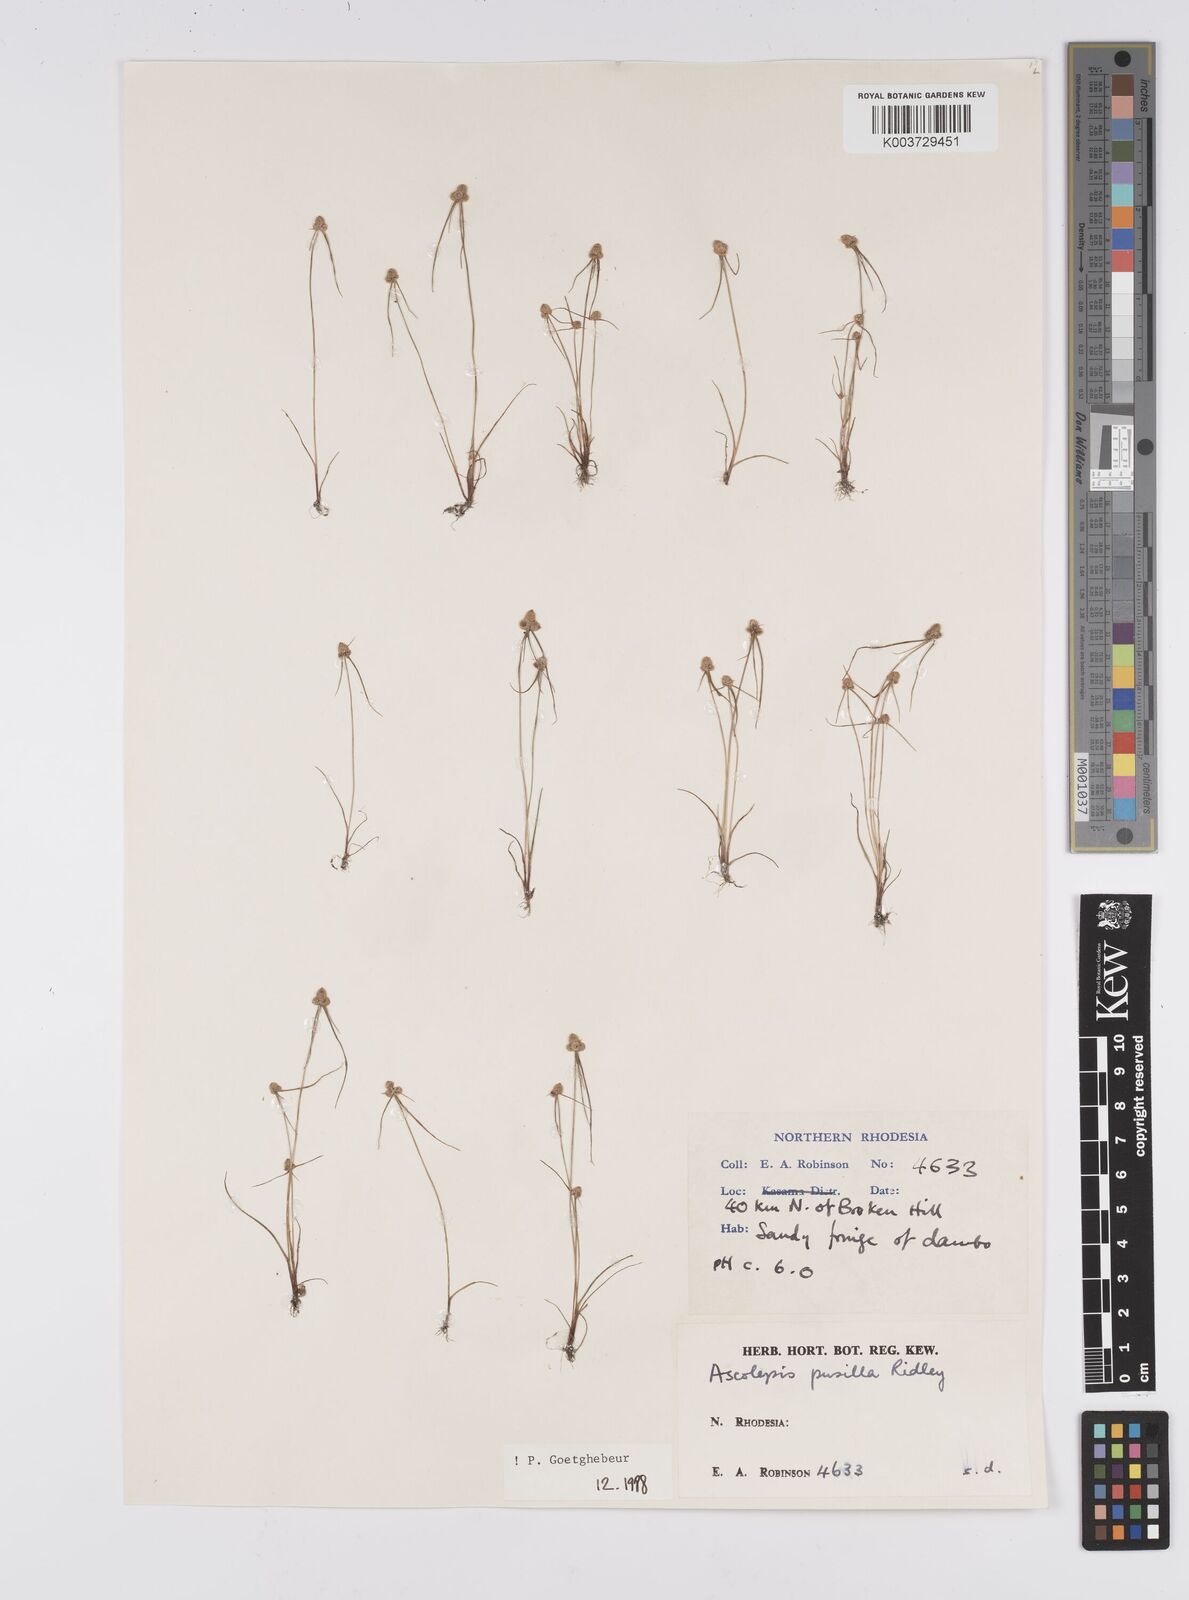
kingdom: Plantae
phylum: Tracheophyta
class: Liliopsida
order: Poales
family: Cyperaceae
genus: Cyperus
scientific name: Cyperus
